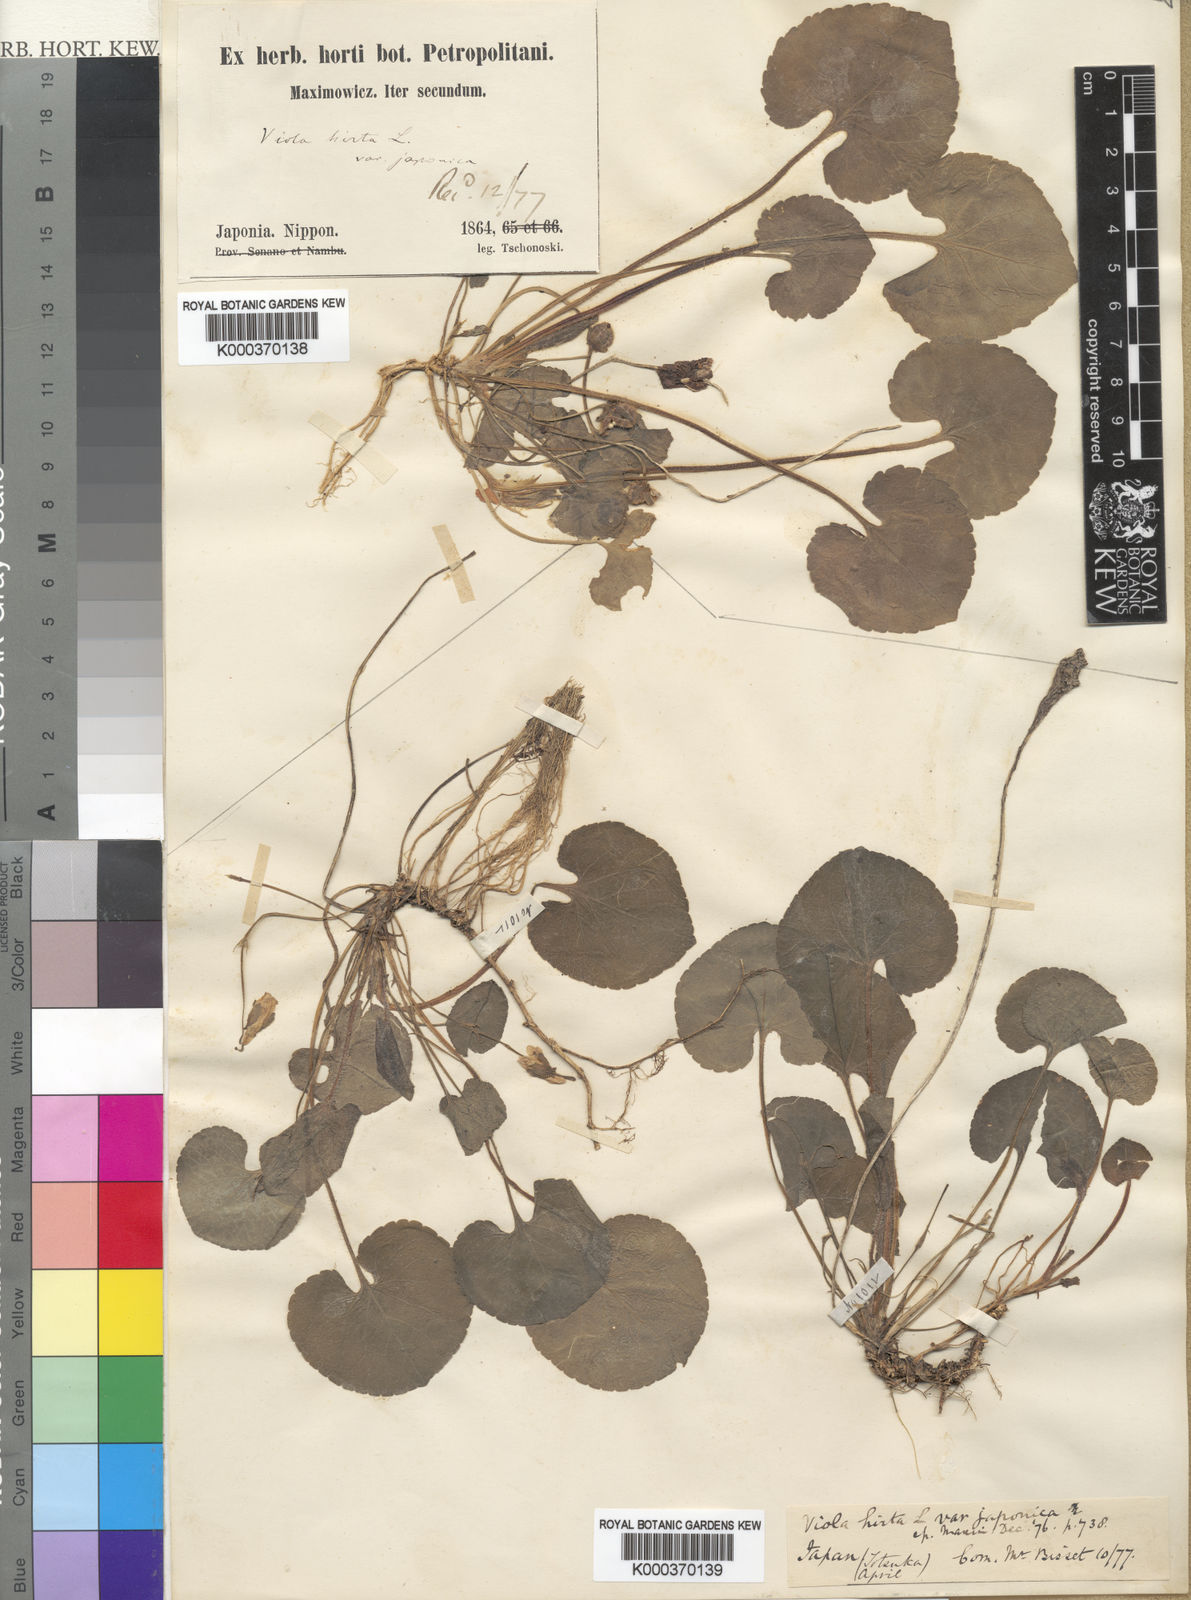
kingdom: Plantae
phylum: Tracheophyta
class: Magnoliopsida
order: Malpighiales
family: Violaceae
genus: Viola
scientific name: Viola hondoensis
